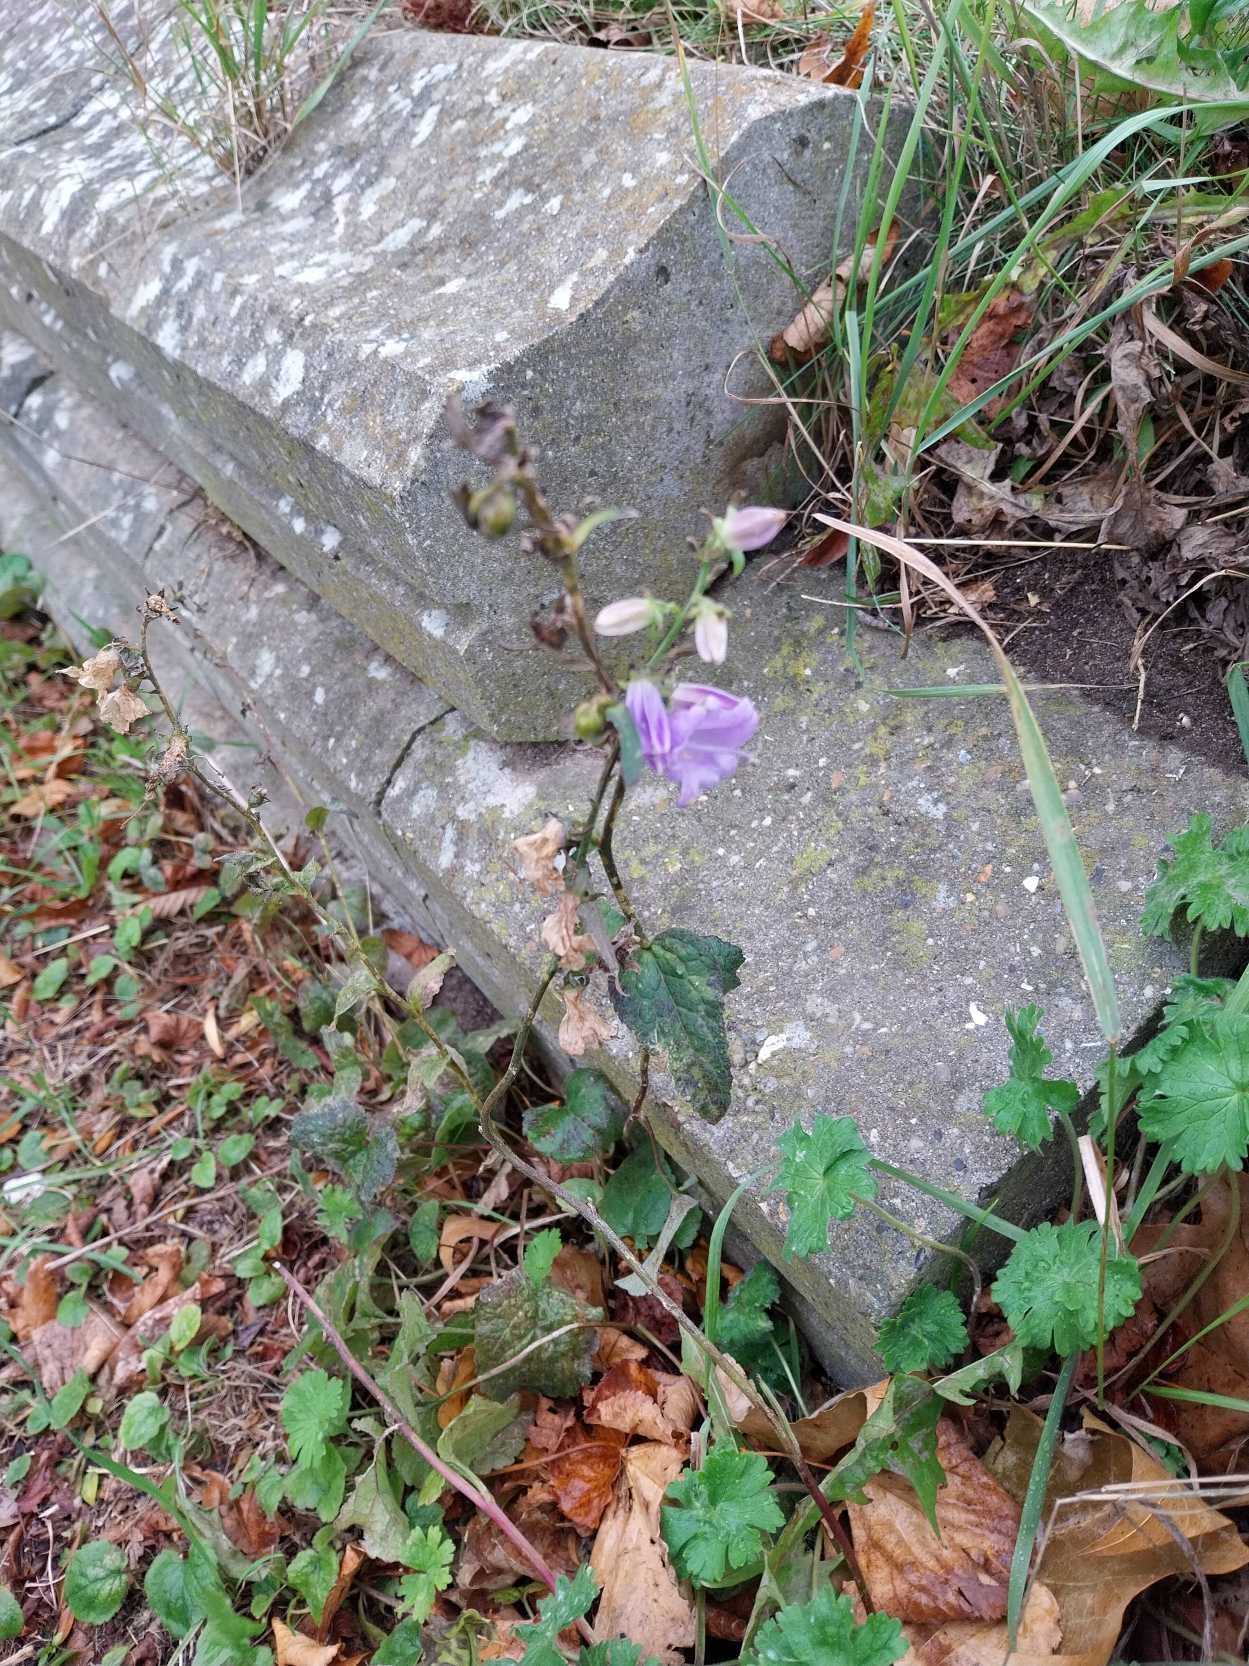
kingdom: Plantae
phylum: Tracheophyta
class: Magnoliopsida
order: Asterales
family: Campanulaceae
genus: Campanula
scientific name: Campanula rapunculoides
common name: Ensidig klokke
